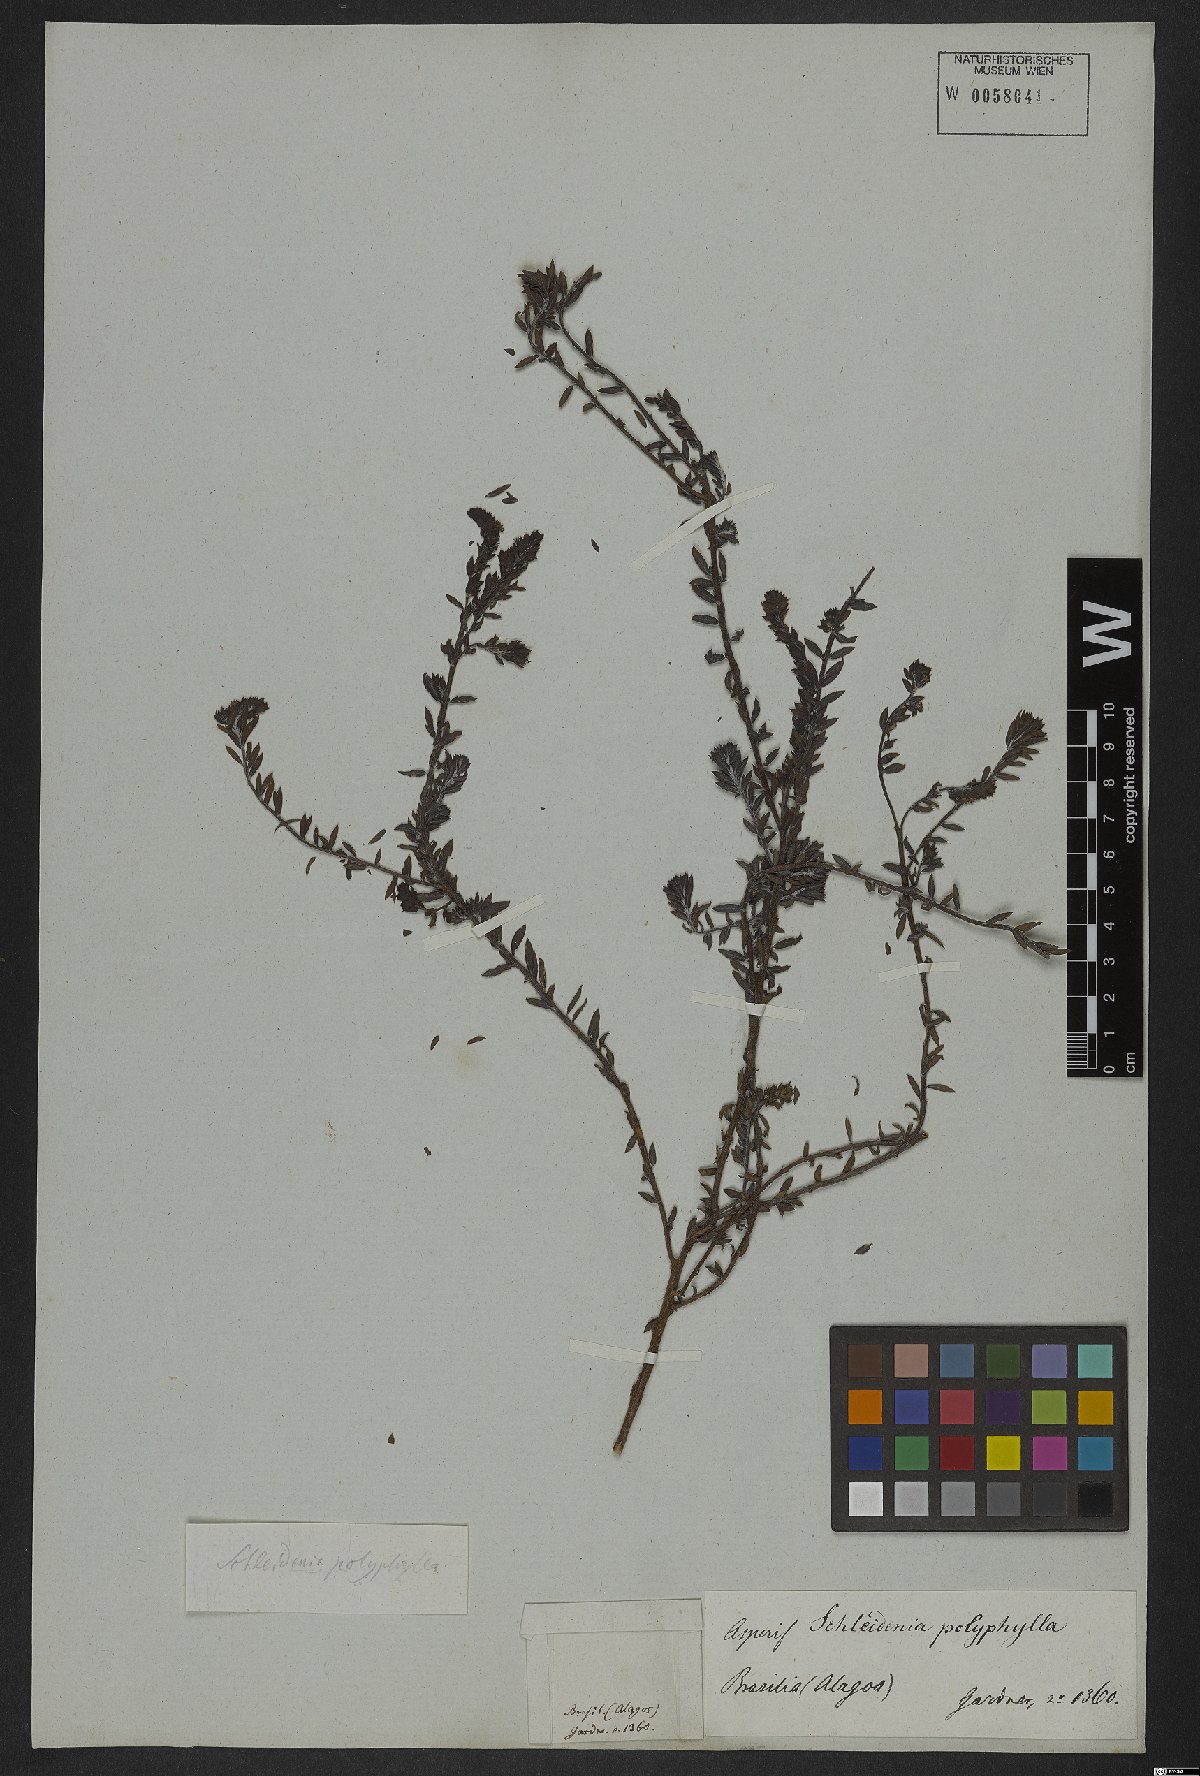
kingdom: Plantae
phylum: Tracheophyta
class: Magnoliopsida
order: Boraginales
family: Heliotropiaceae
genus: Euploca
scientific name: Euploca polyphylla
